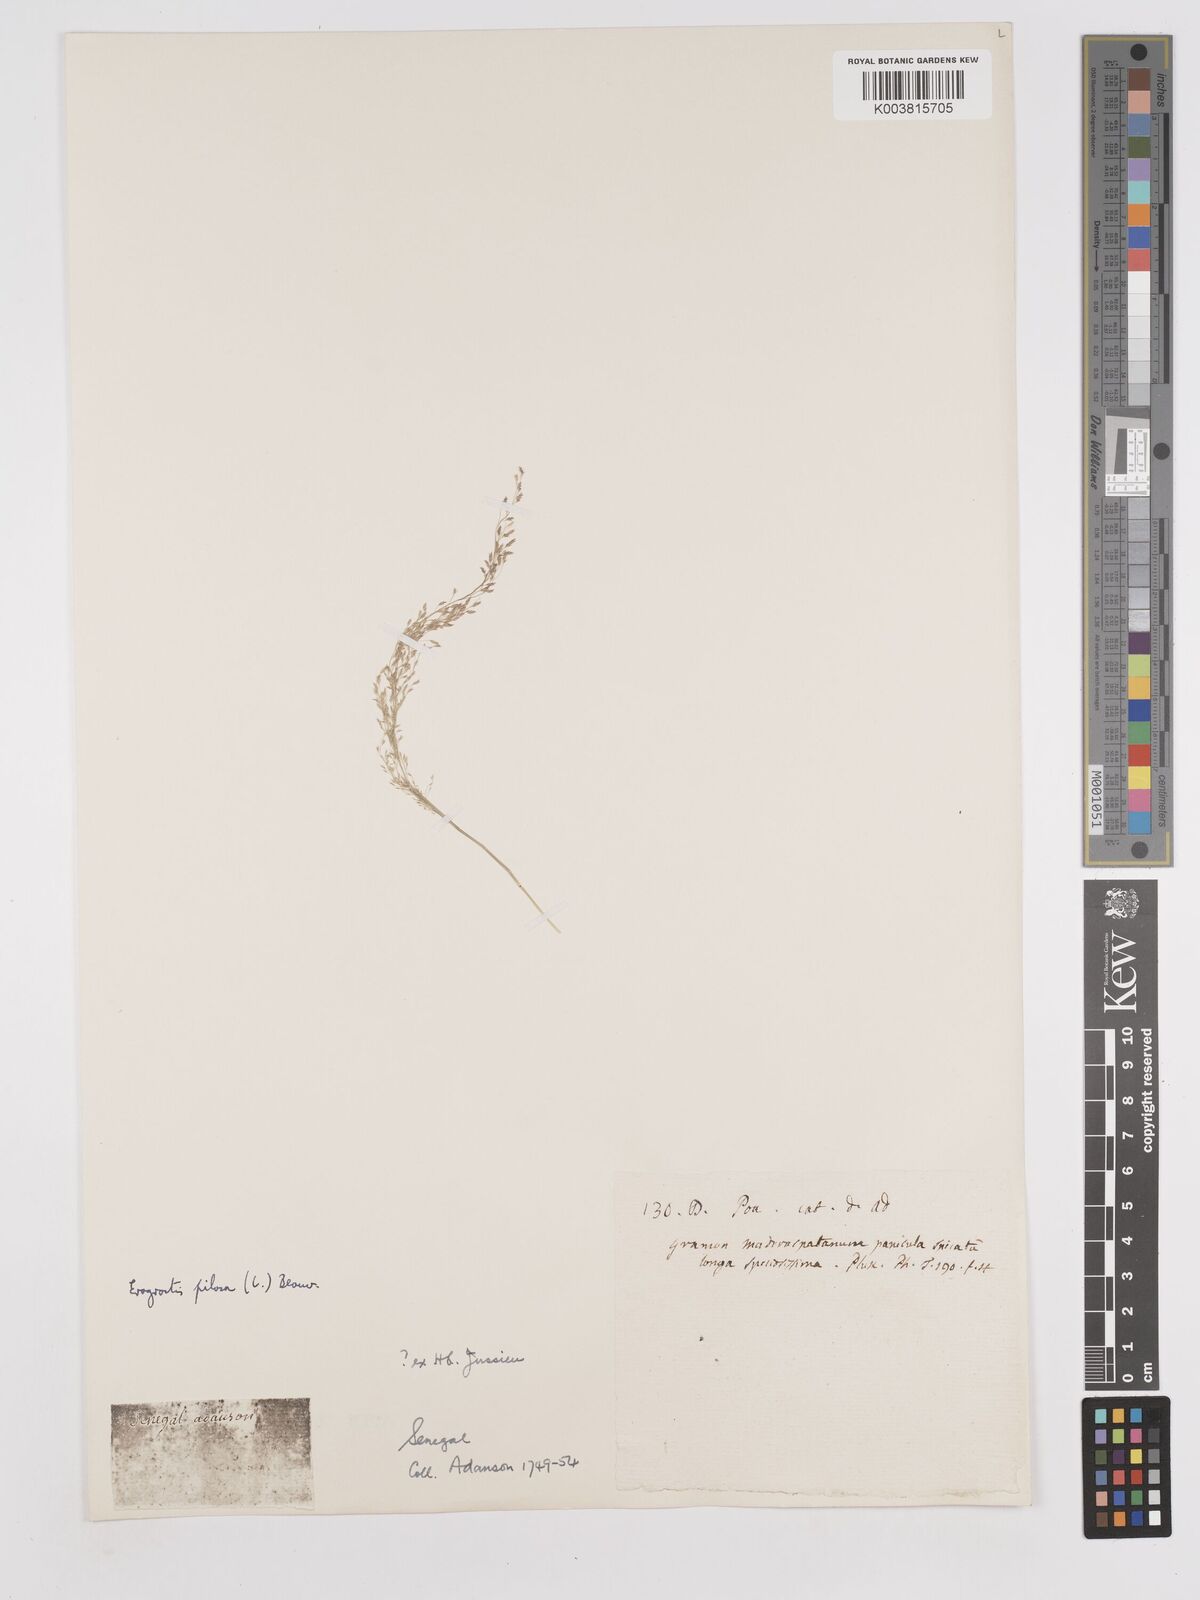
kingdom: Plantae
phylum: Tracheophyta
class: Liliopsida
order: Poales
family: Poaceae
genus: Eragrostis
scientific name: Eragrostis pilosa
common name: Indian lovegrass
